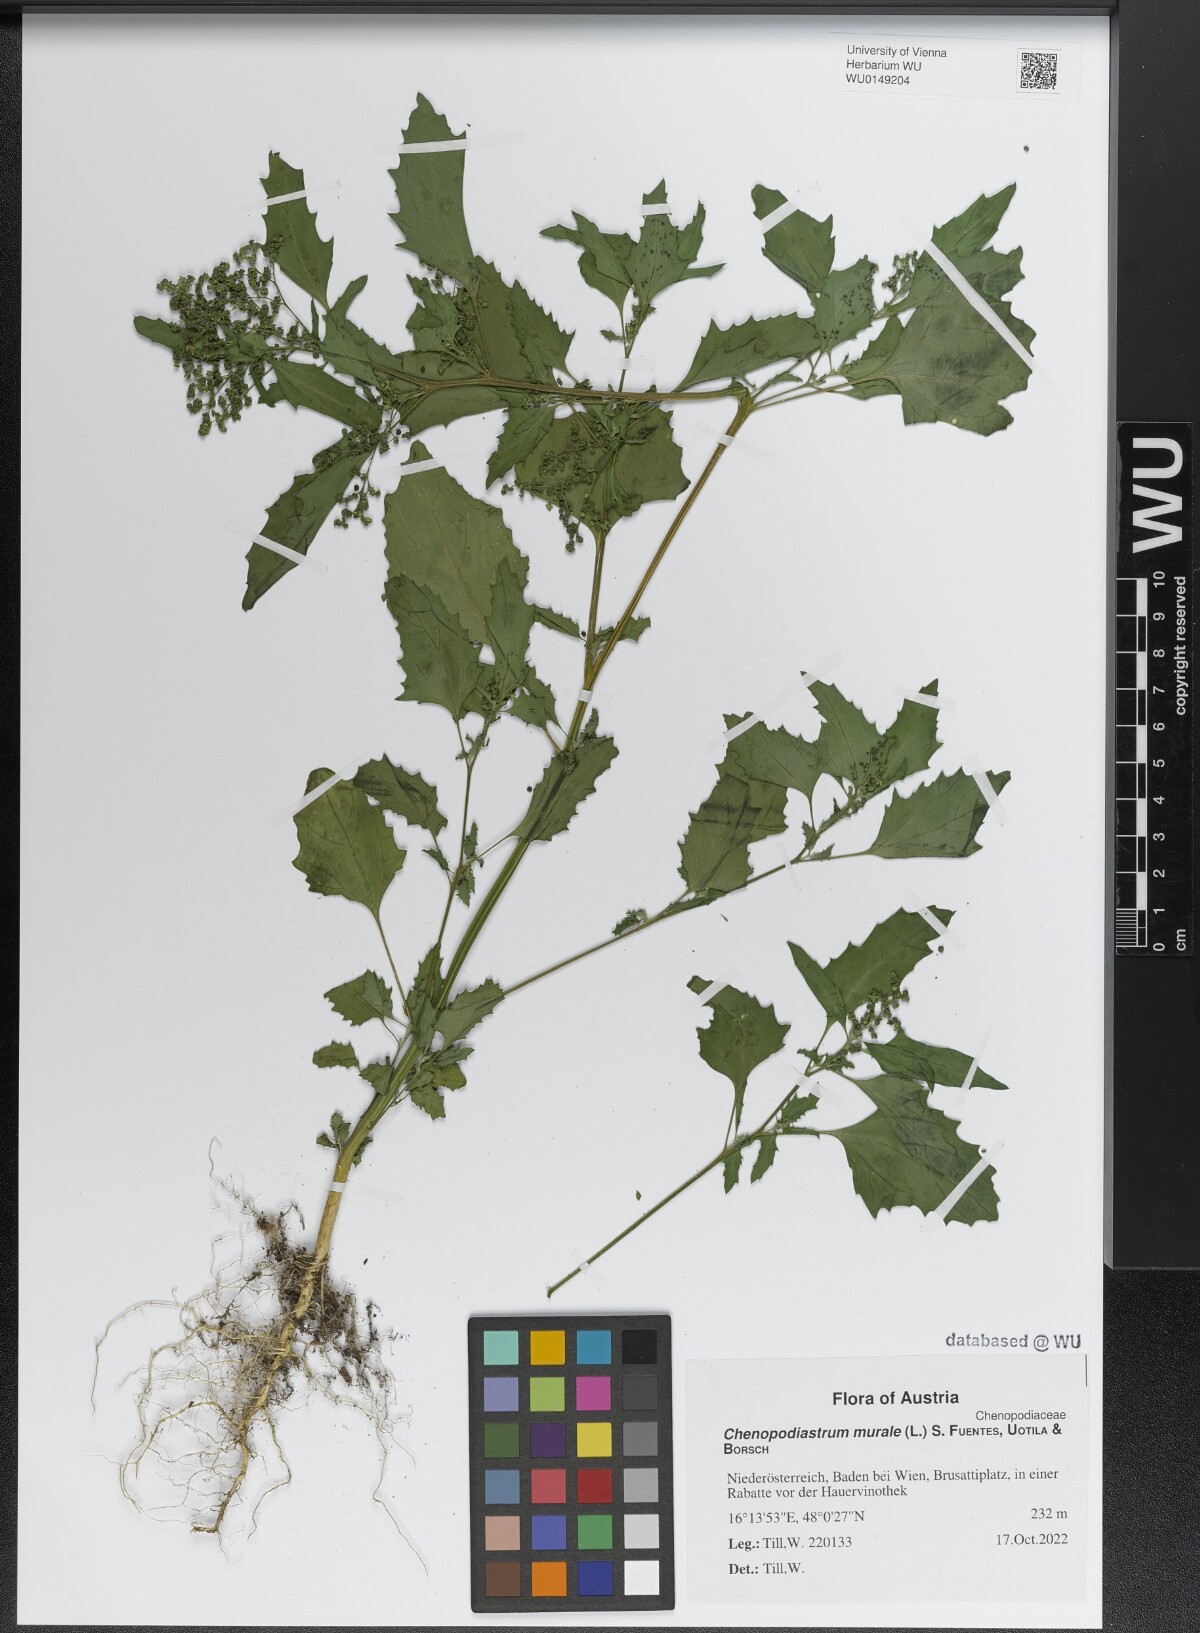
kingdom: Plantae
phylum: Tracheophyta
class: Magnoliopsida
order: Caryophyllales
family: Amaranthaceae
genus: Chenopodiastrum
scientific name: Chenopodiastrum murale
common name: Sowbane
